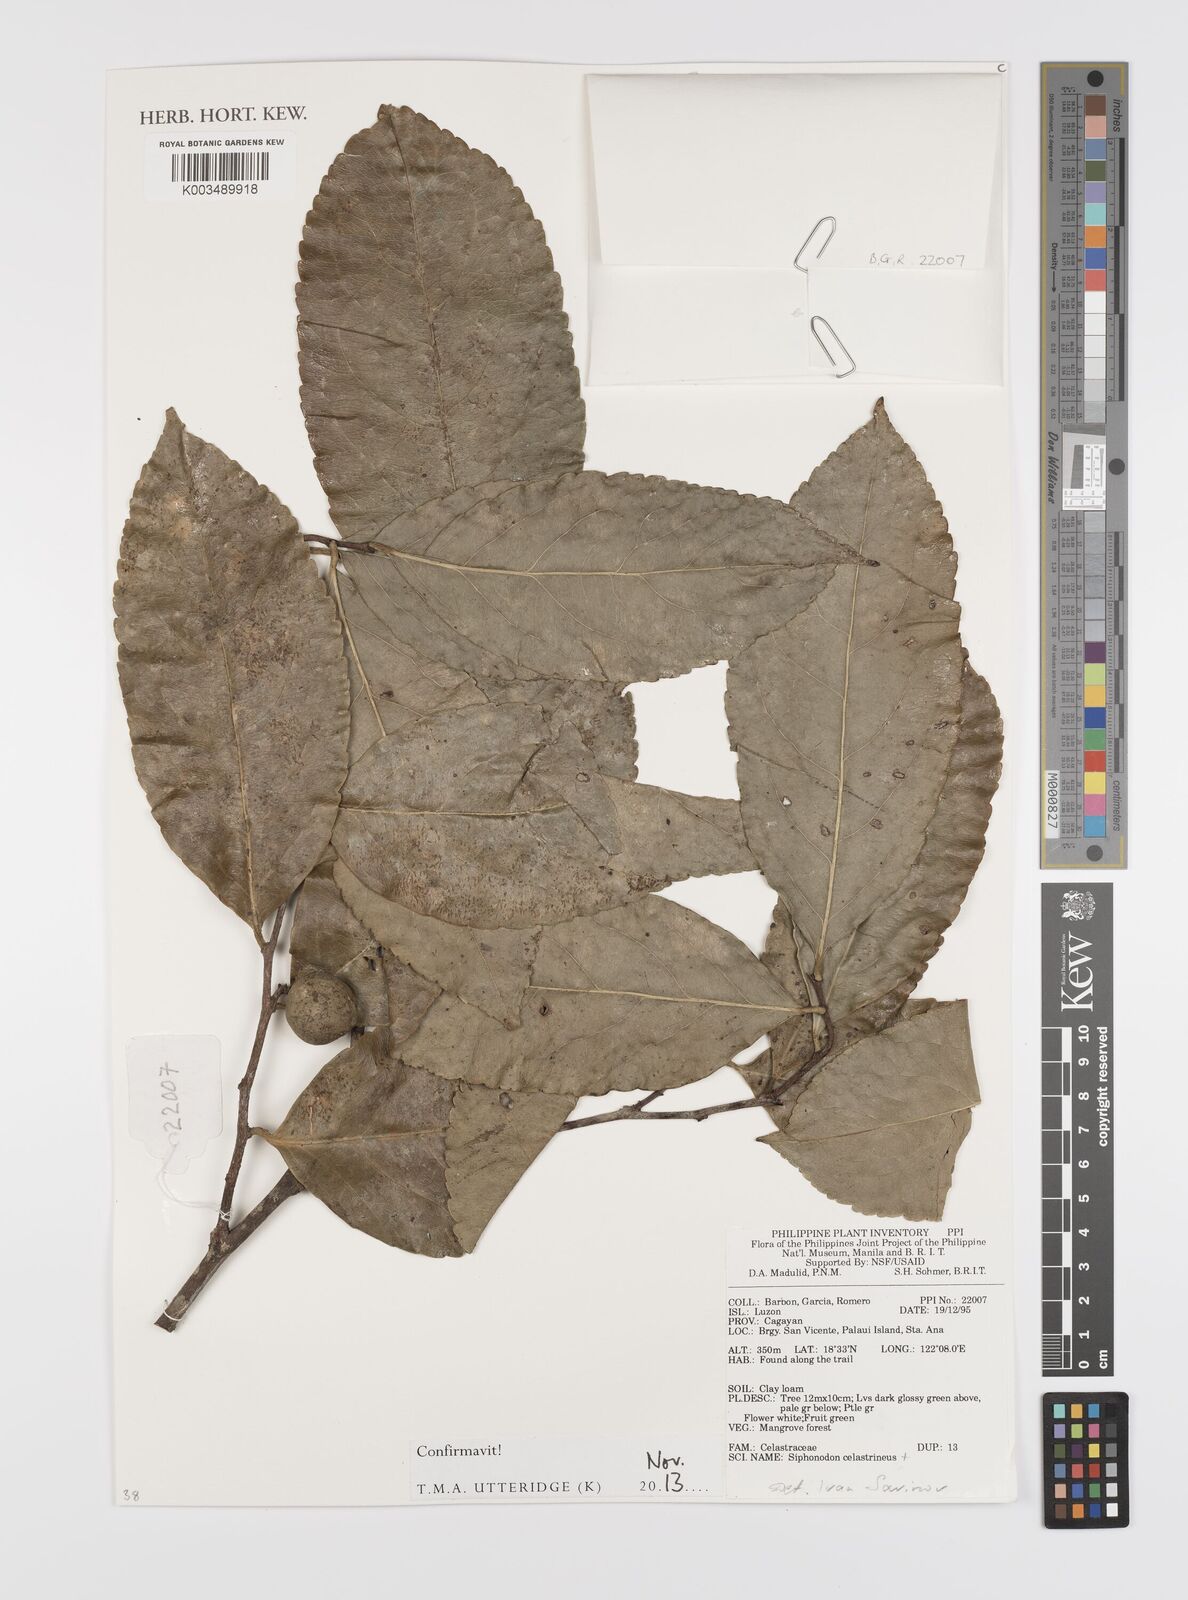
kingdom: Plantae
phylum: Tracheophyta
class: Magnoliopsida
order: Celastrales
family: Celastraceae
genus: Siphonodon
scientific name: Siphonodon celastrineus
